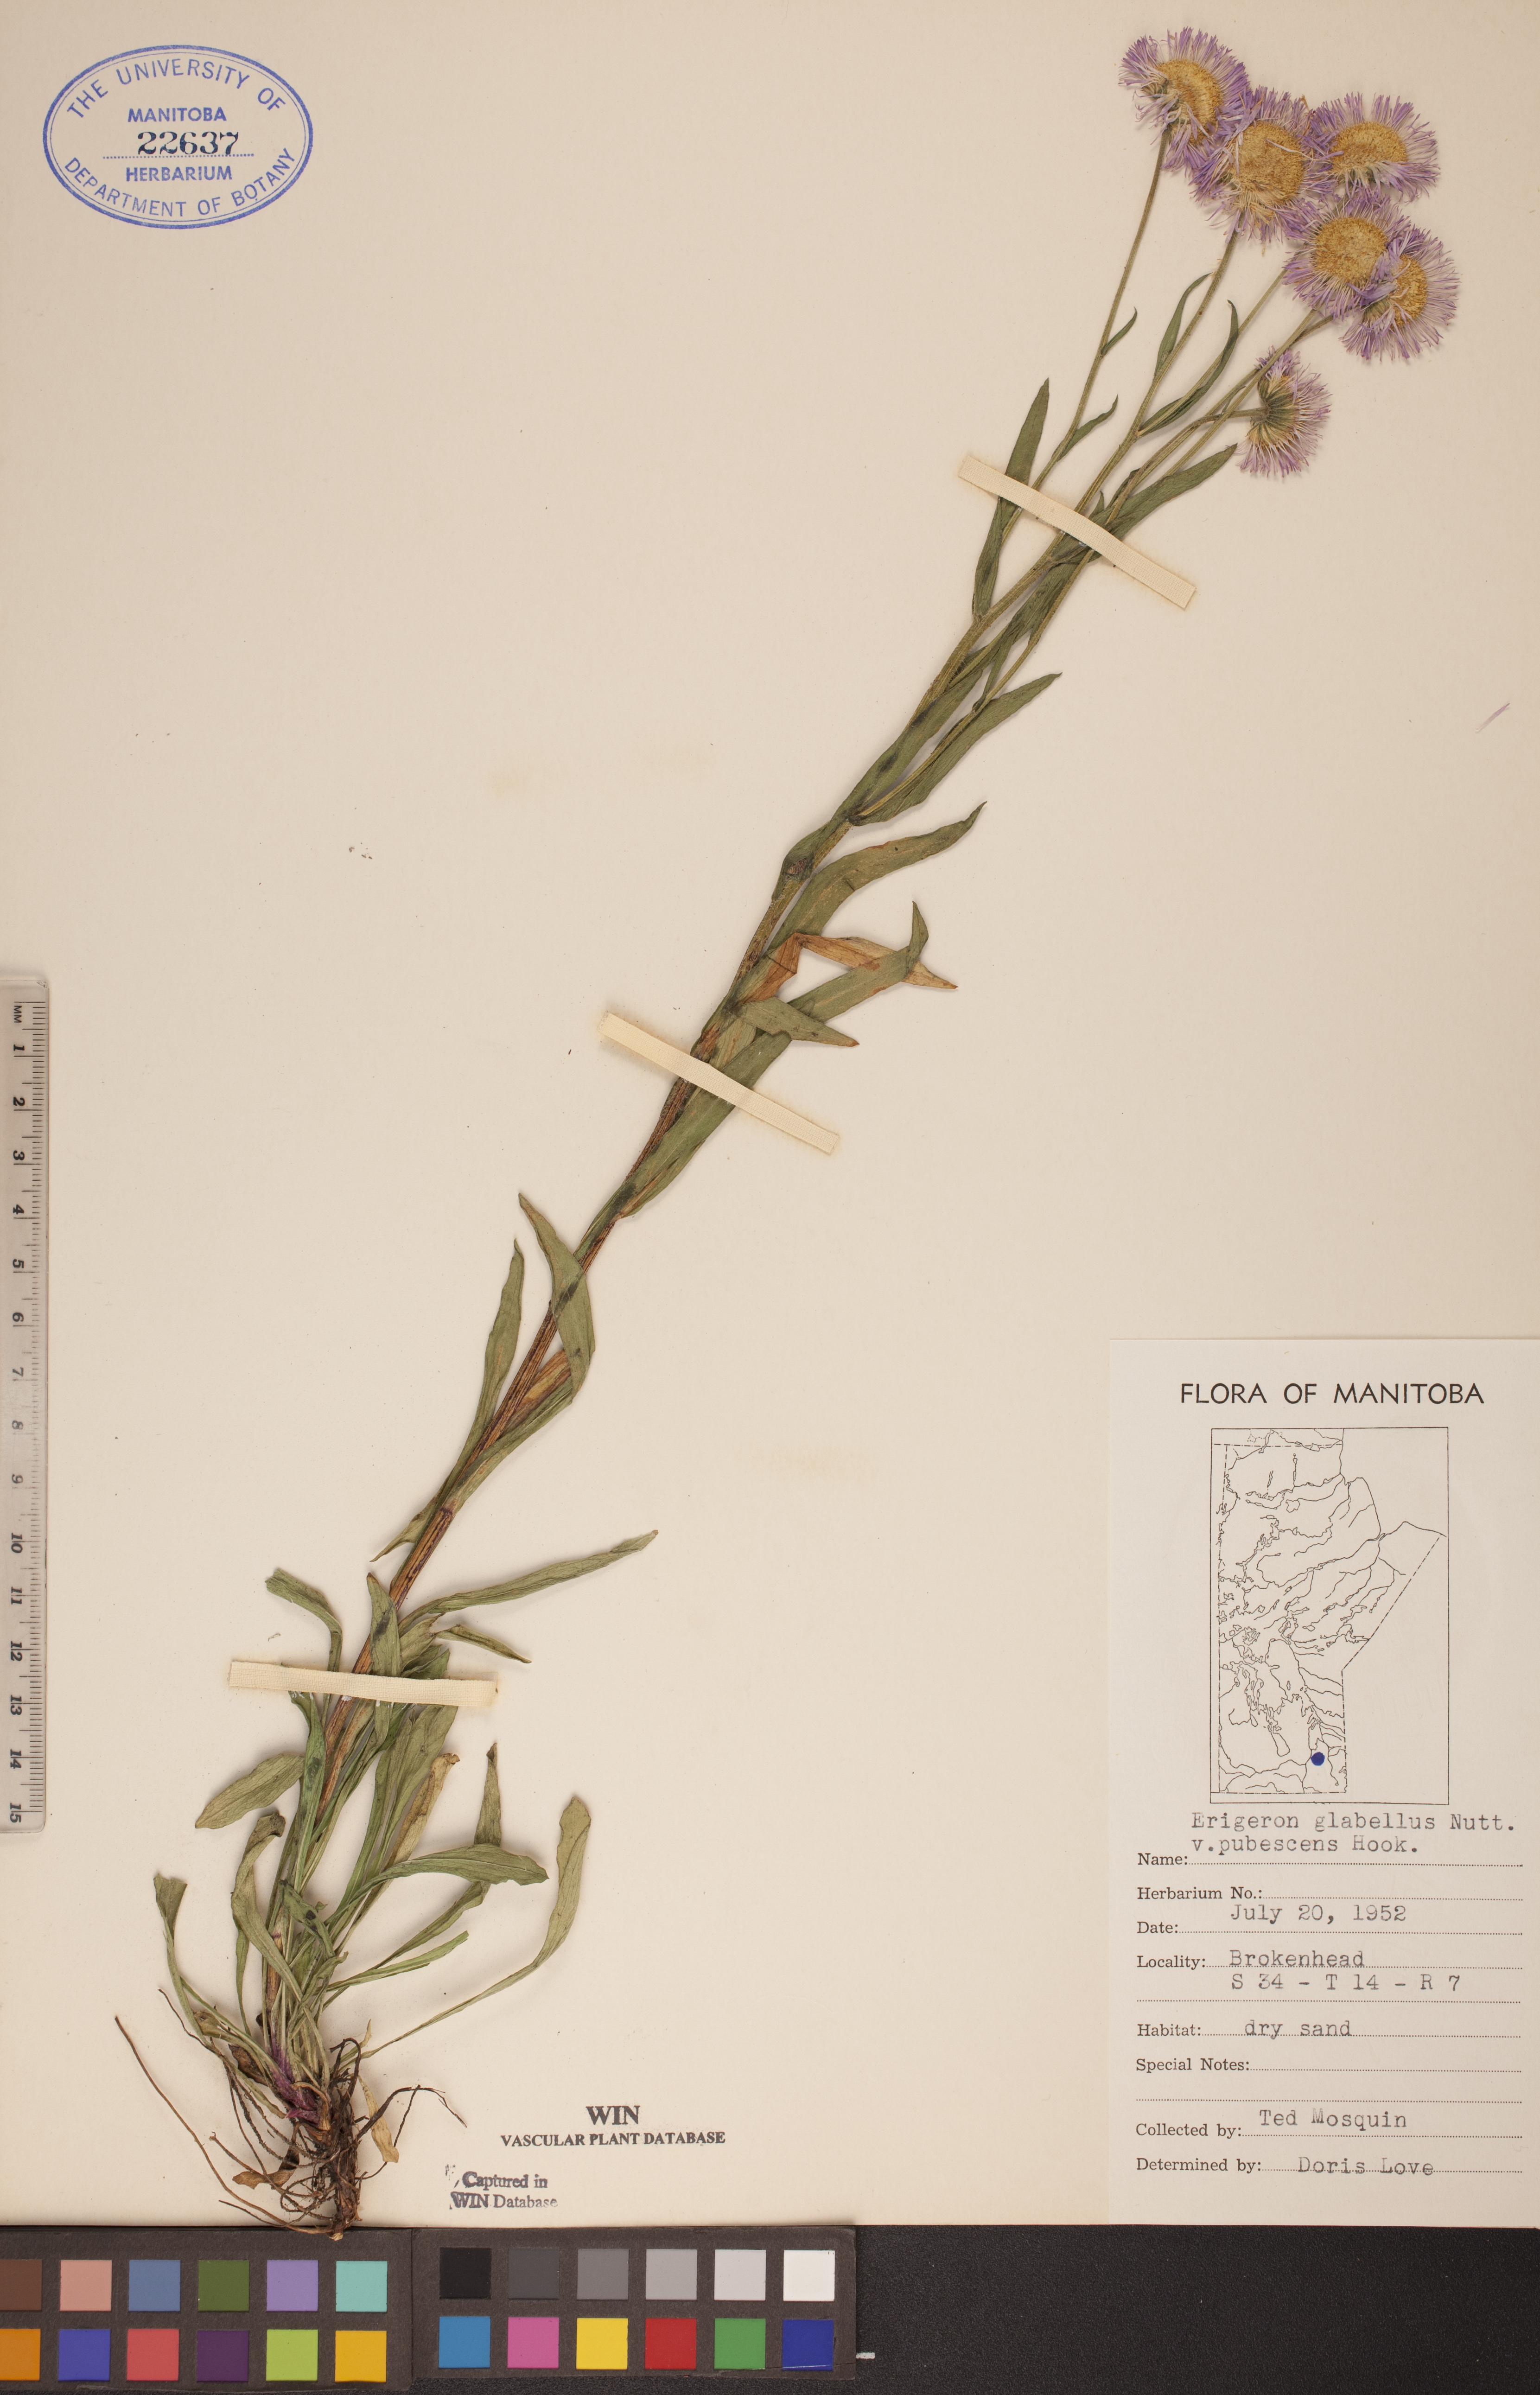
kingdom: Plantae
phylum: Tracheophyta
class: Magnoliopsida
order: Asterales
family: Asteraceae
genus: Erigeron
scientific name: Erigeron glabellus
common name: Smooth fleabane
